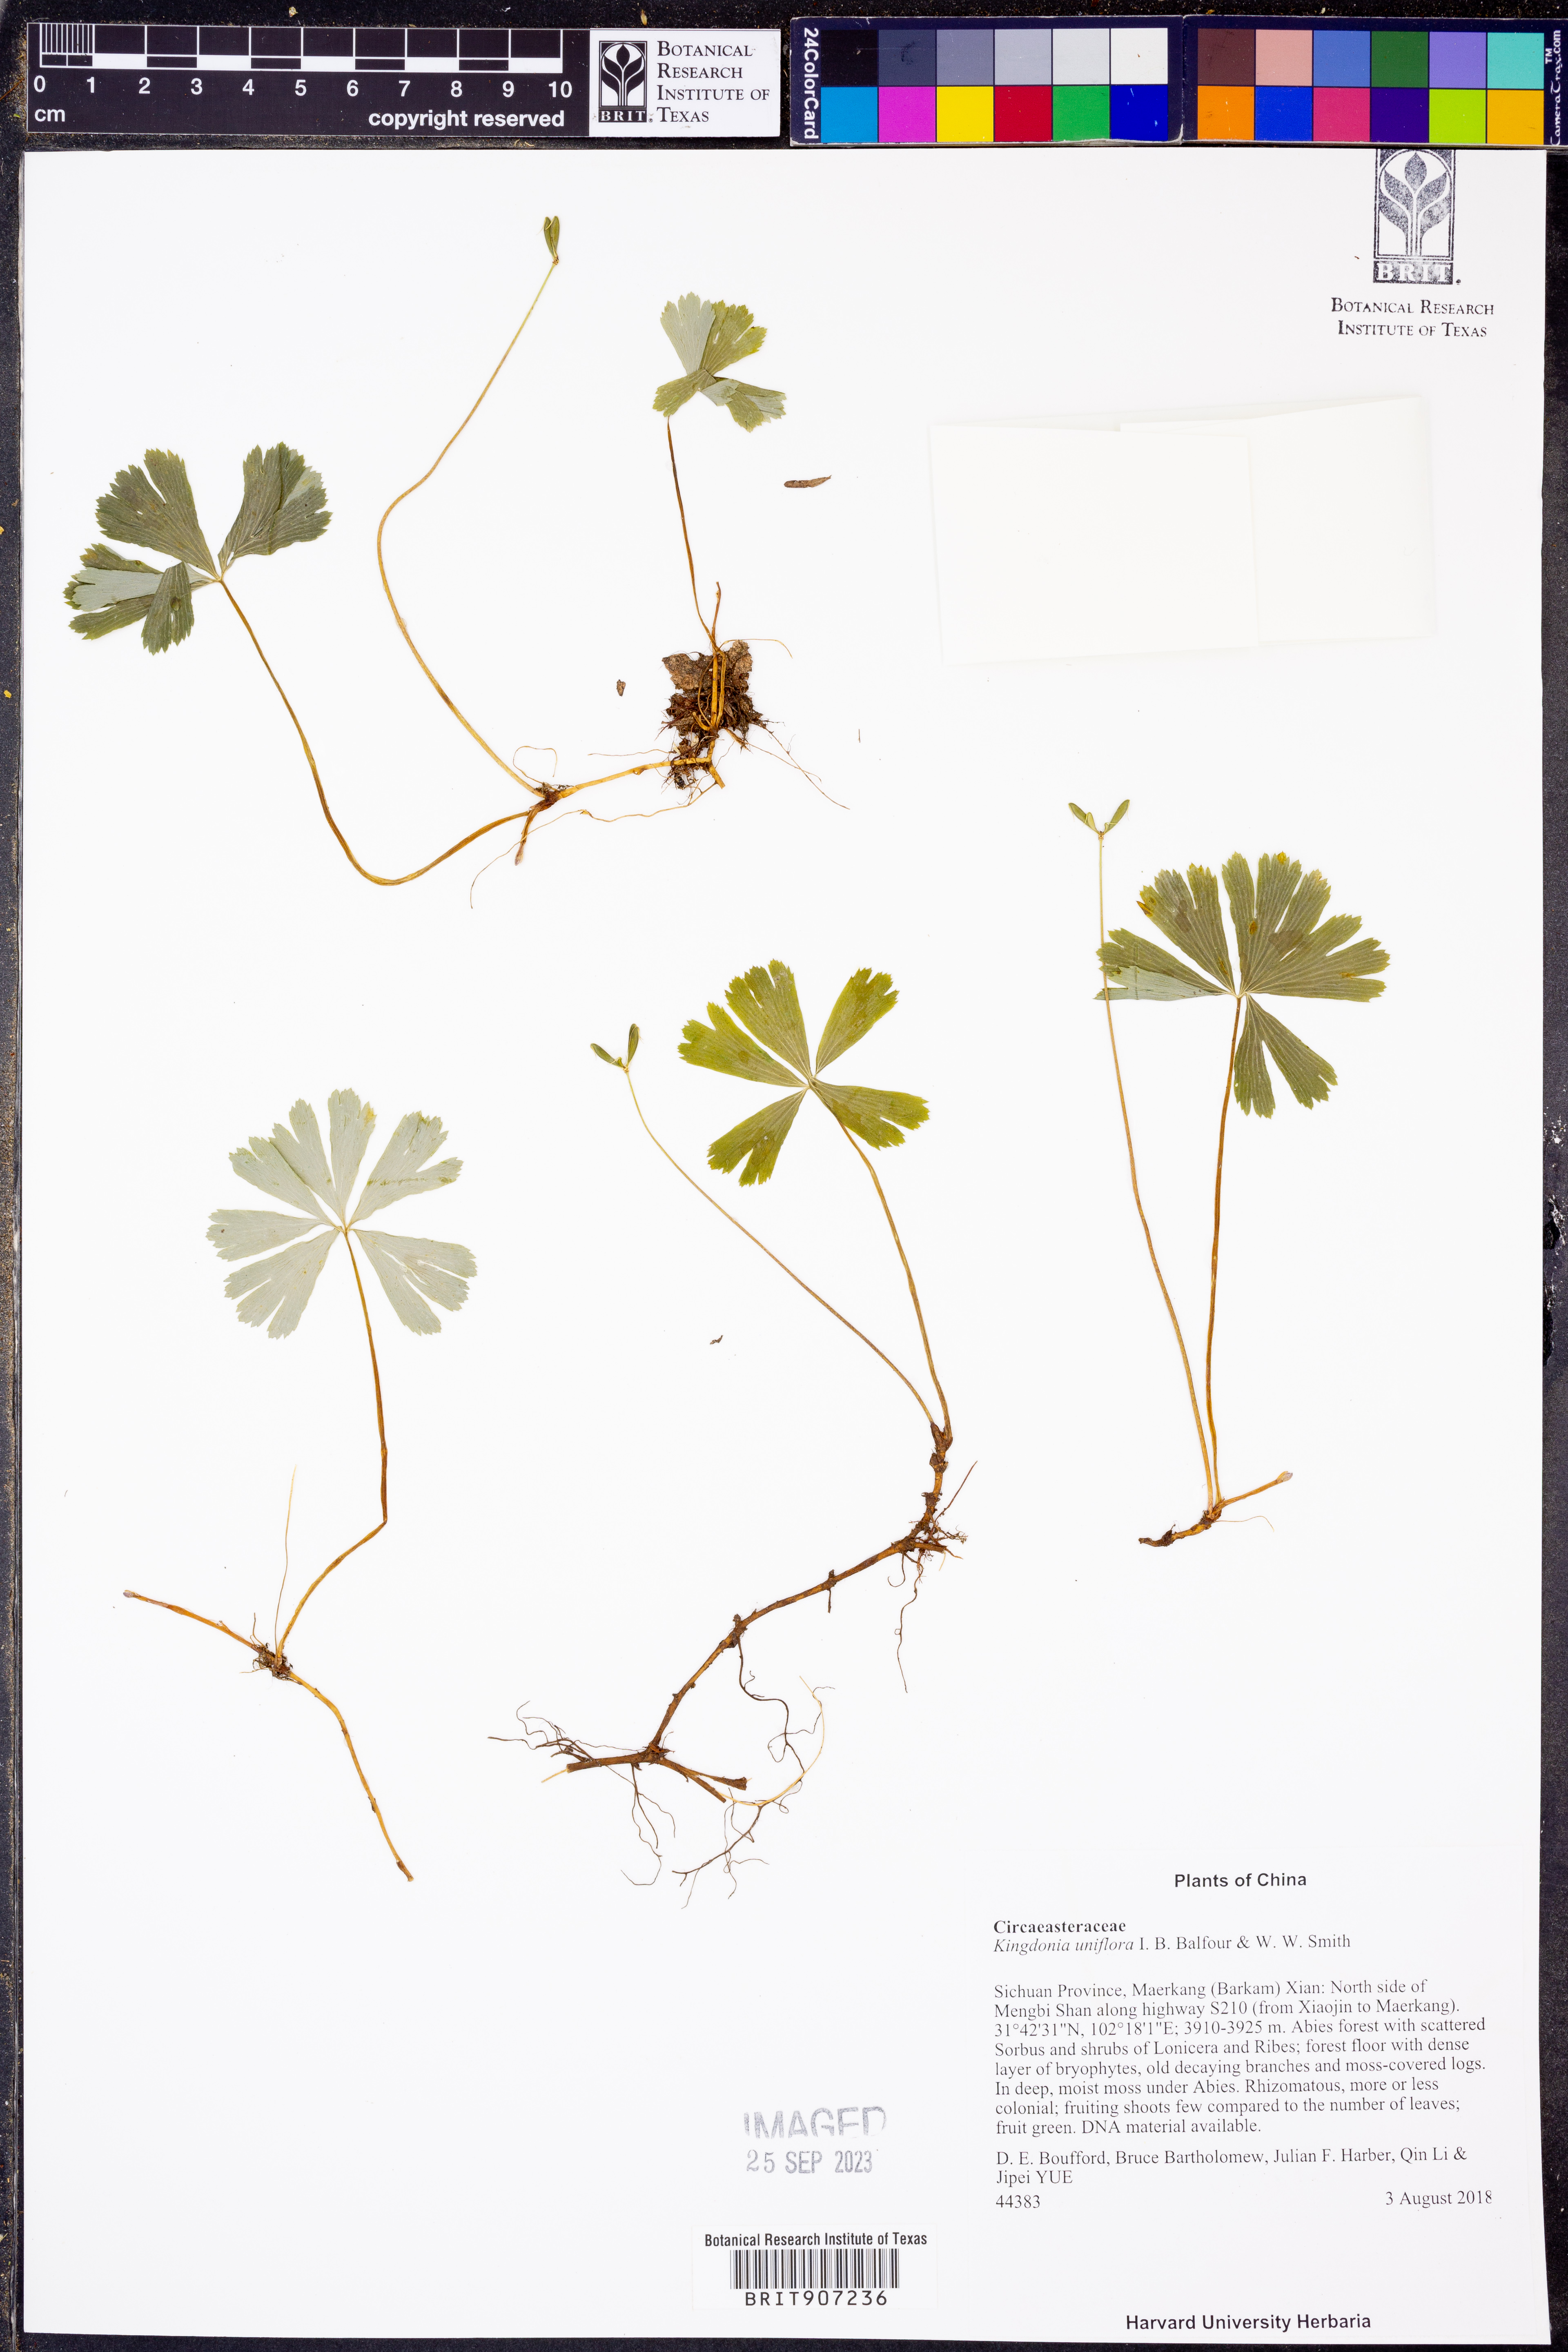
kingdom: Plantae
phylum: Tracheophyta
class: Magnoliopsida
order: Ranunculales
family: Circaeasteraceae
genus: Kingdonia
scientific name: Kingdonia uniflora
